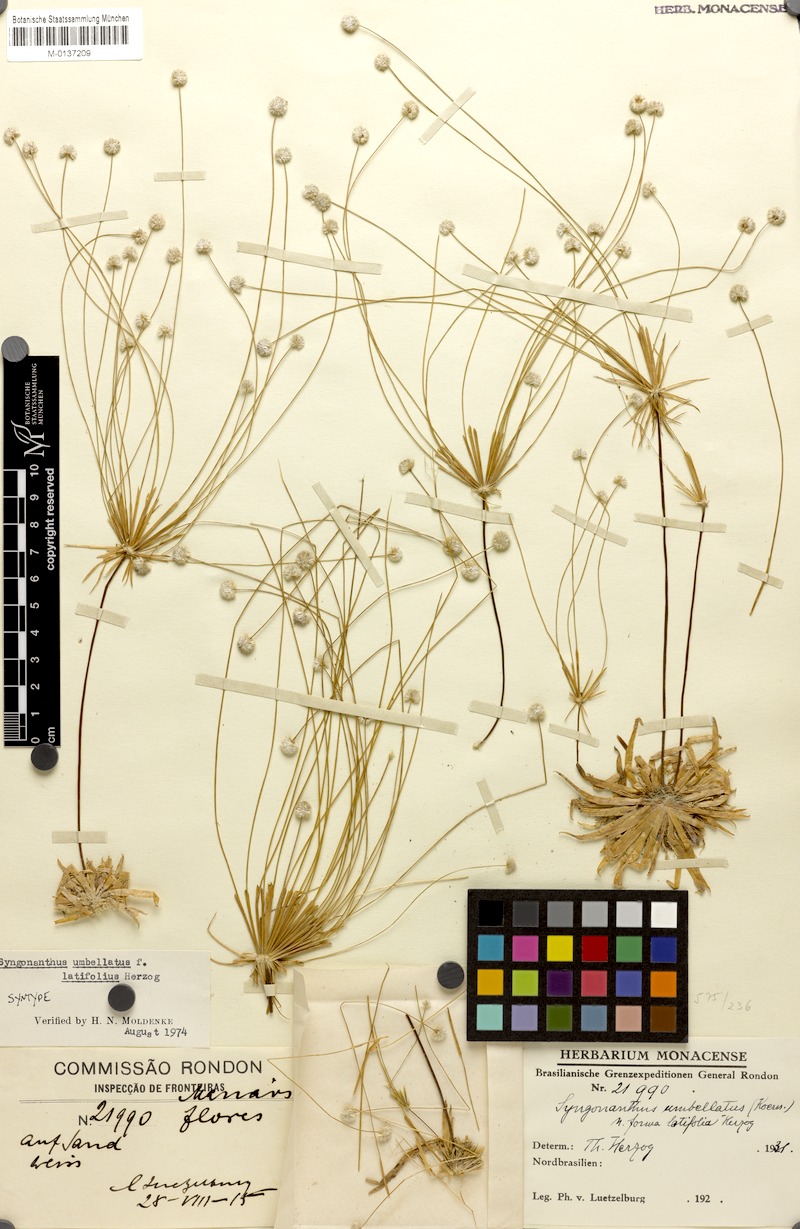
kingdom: Plantae
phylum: Tracheophyta
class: Liliopsida
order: Poales
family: Eriocaulaceae
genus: Syngonanthus
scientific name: Syngonanthus umbellatus
